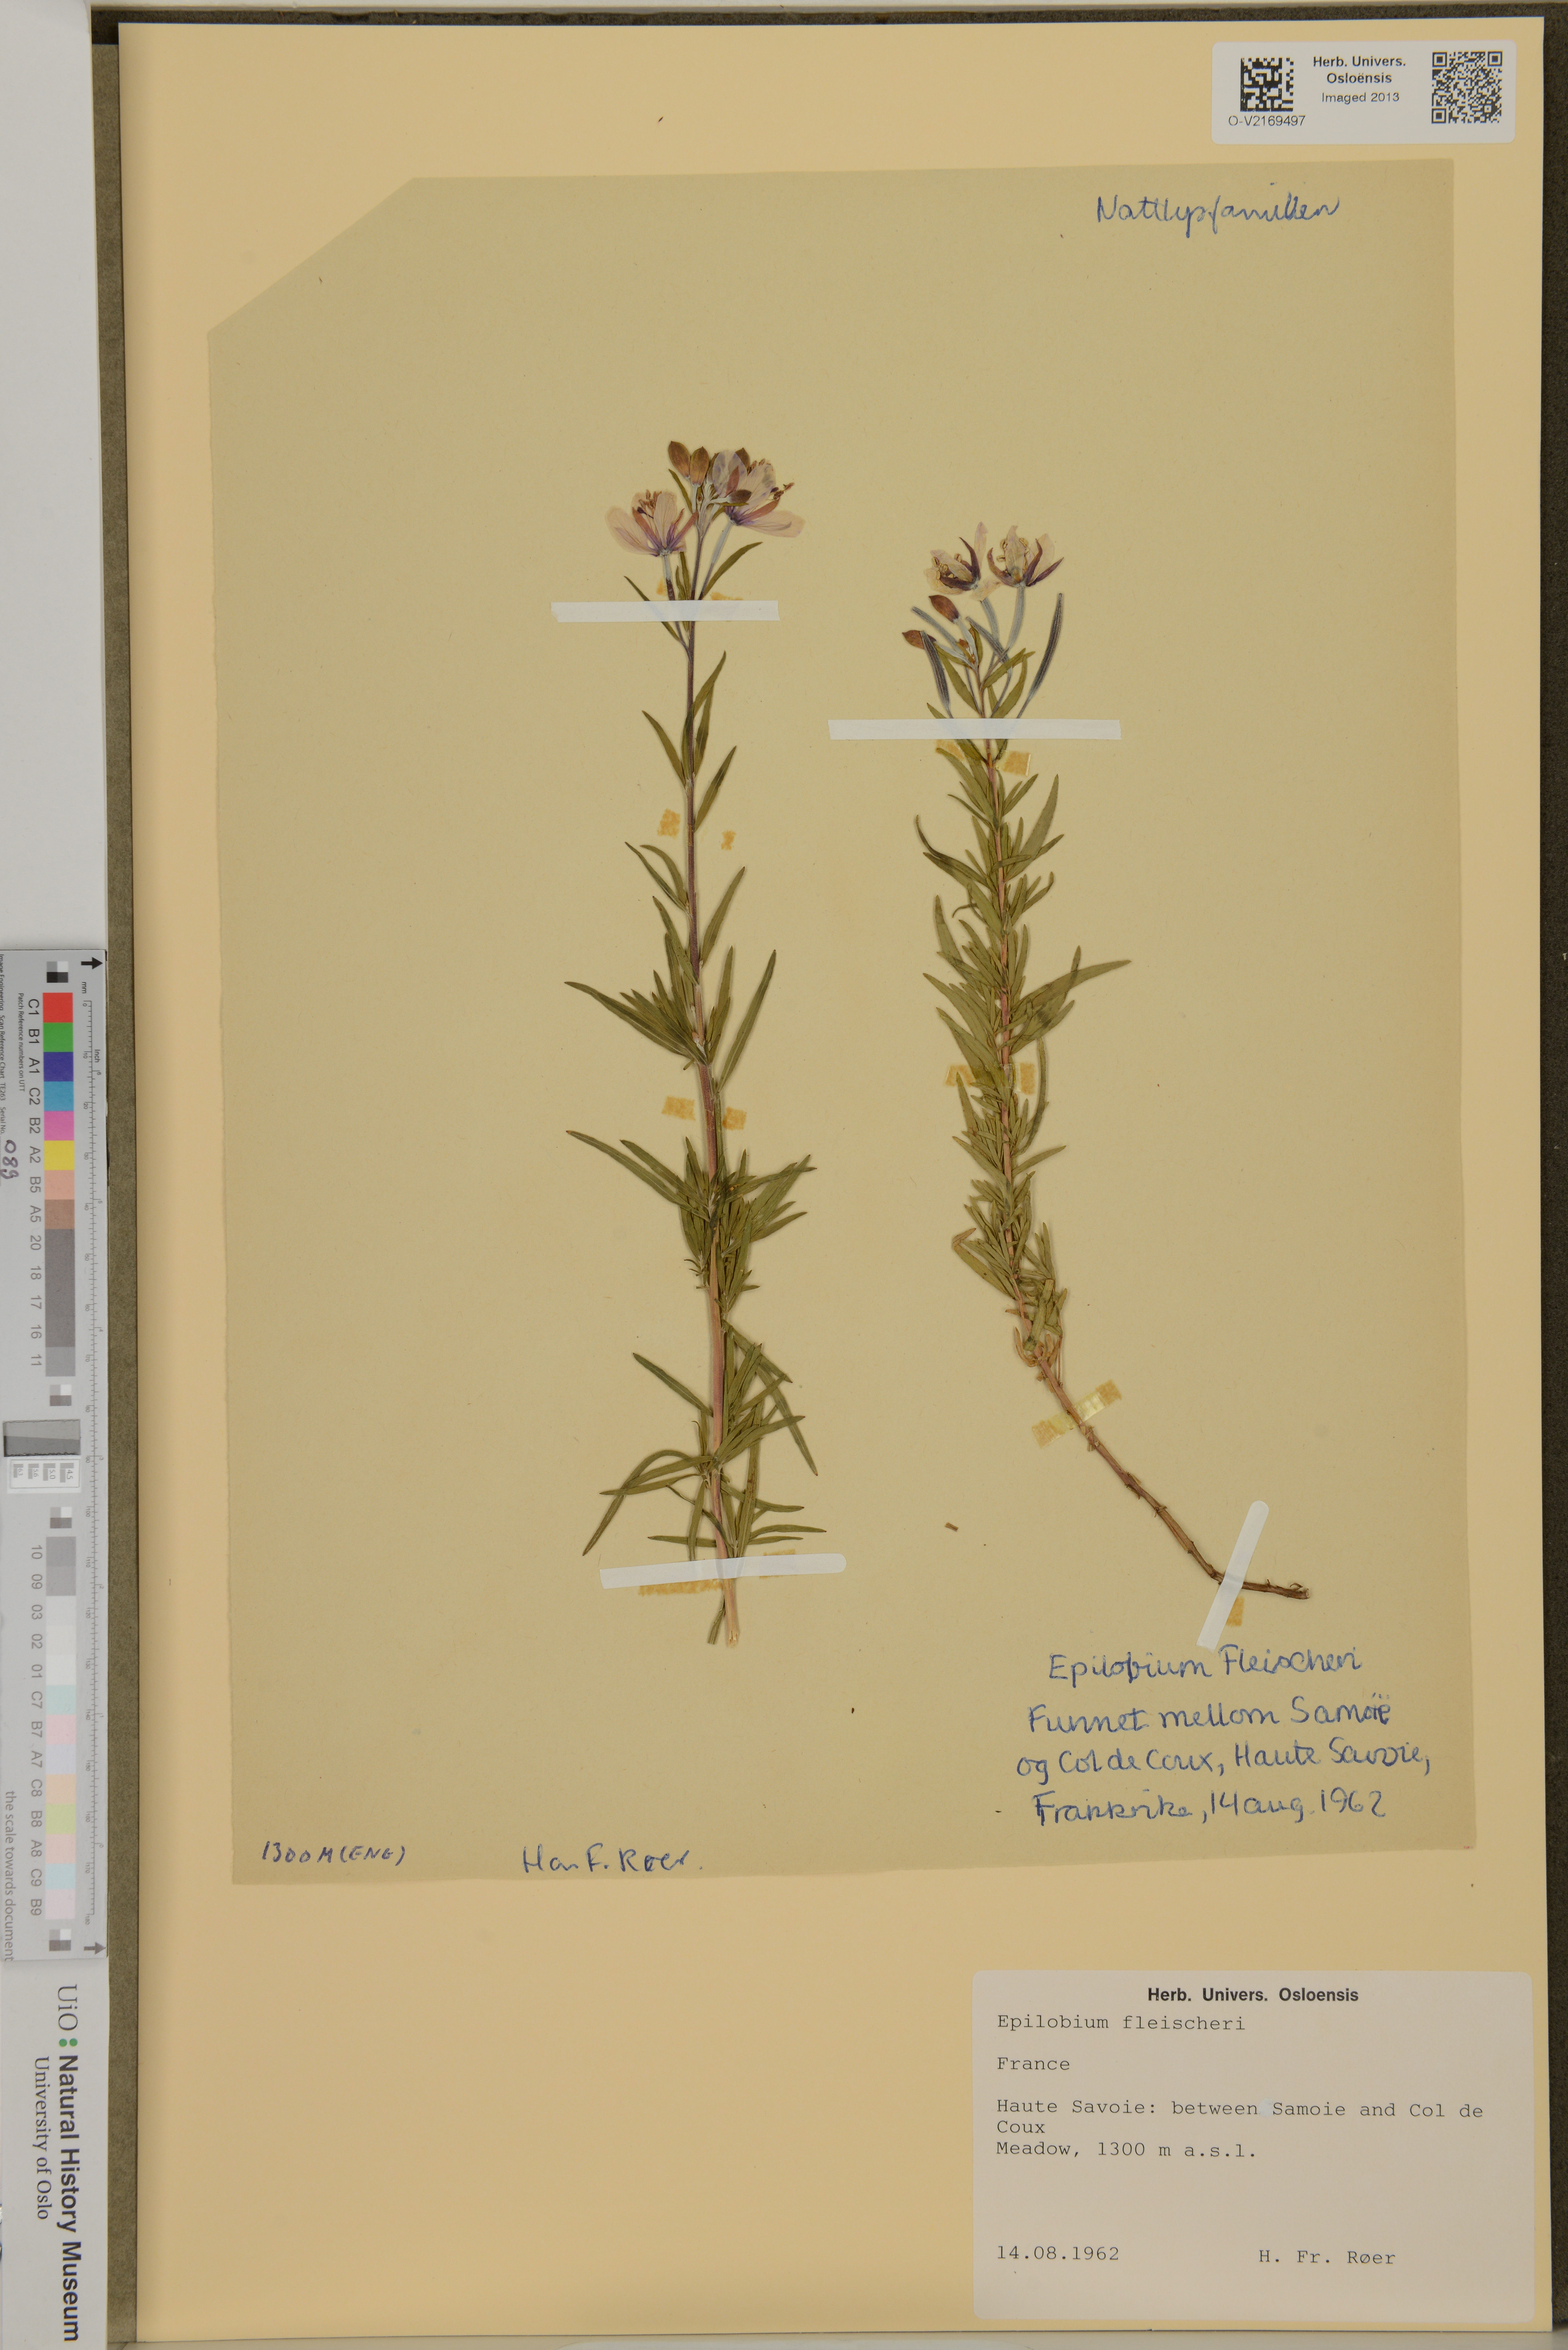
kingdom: Plantae
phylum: Tracheophyta
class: Magnoliopsida
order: Myrtales
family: Onagraceae
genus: Chamaenerion
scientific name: Chamaenerion fleischeri
